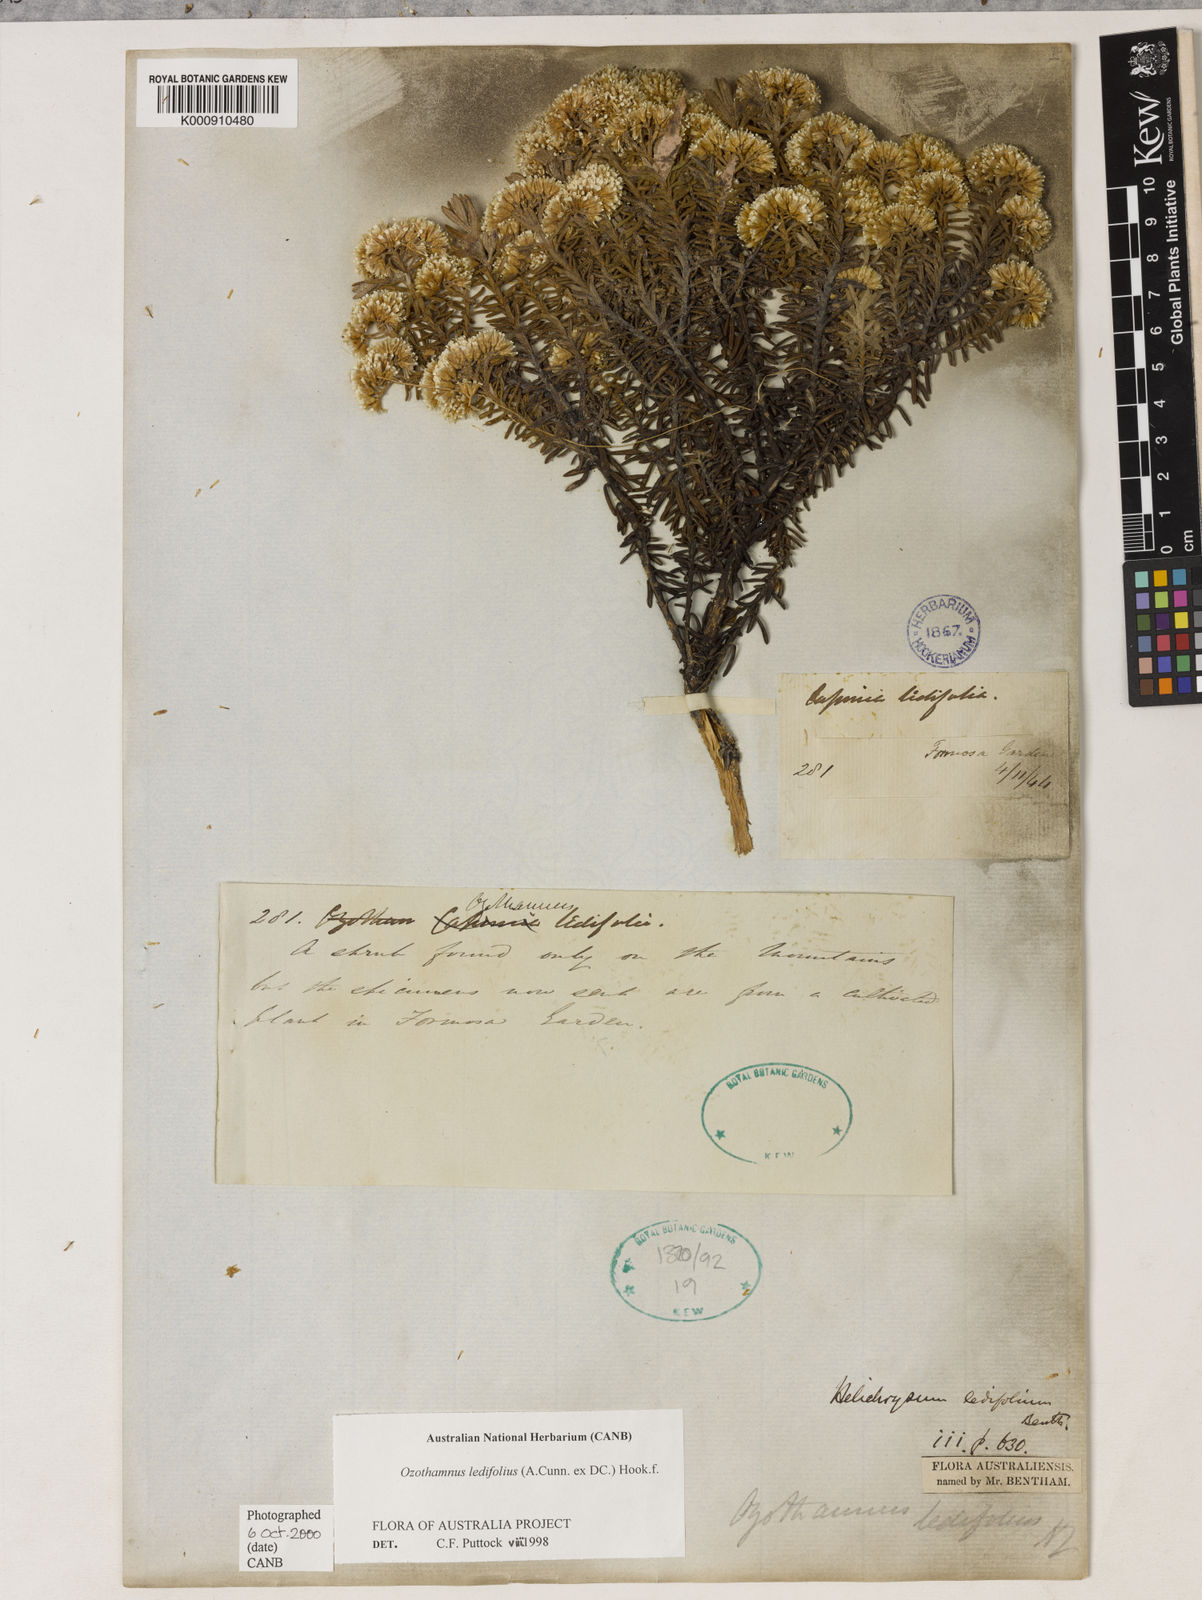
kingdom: Plantae
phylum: Tracheophyta
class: Magnoliopsida
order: Asterales
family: Asteraceae
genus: Ozothamnus
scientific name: Ozothamnus ledifolius
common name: Kerosene-weed
